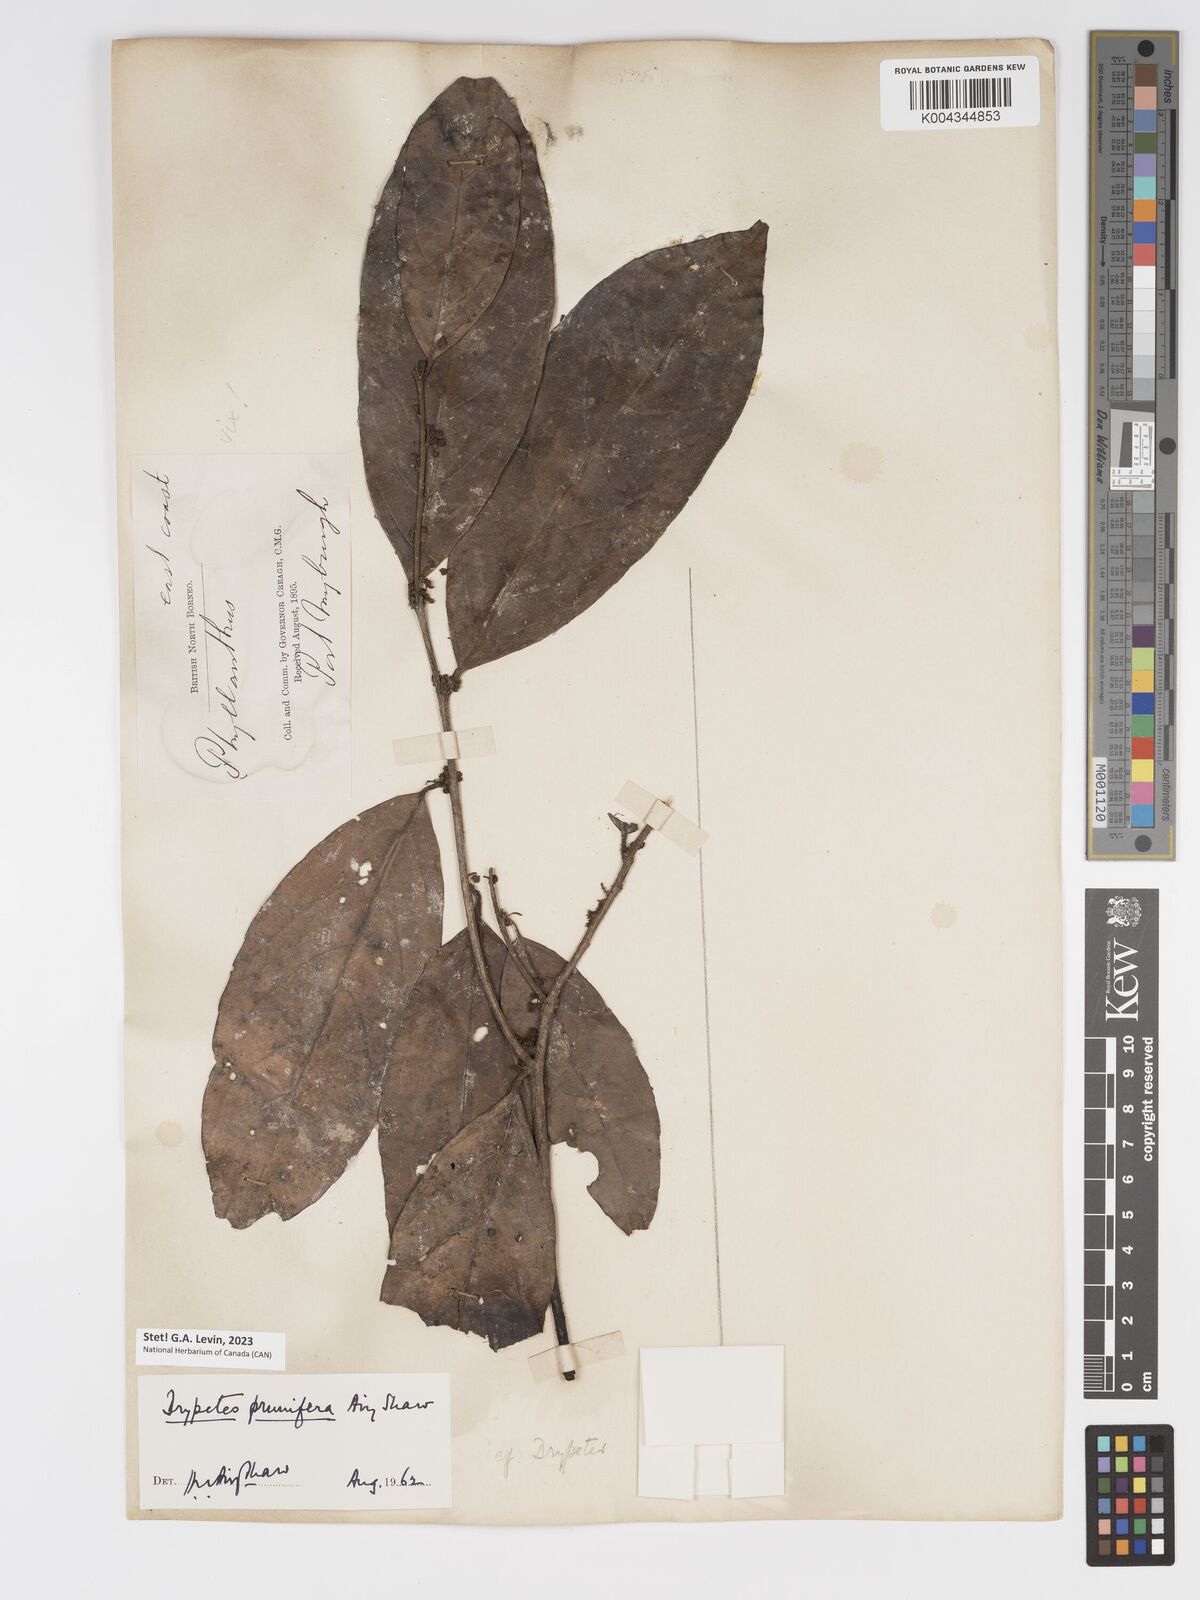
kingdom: Plantae
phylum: Tracheophyta
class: Magnoliopsida
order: Malpighiales
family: Putranjivaceae
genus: Drypetes
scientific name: Drypetes prunifera
